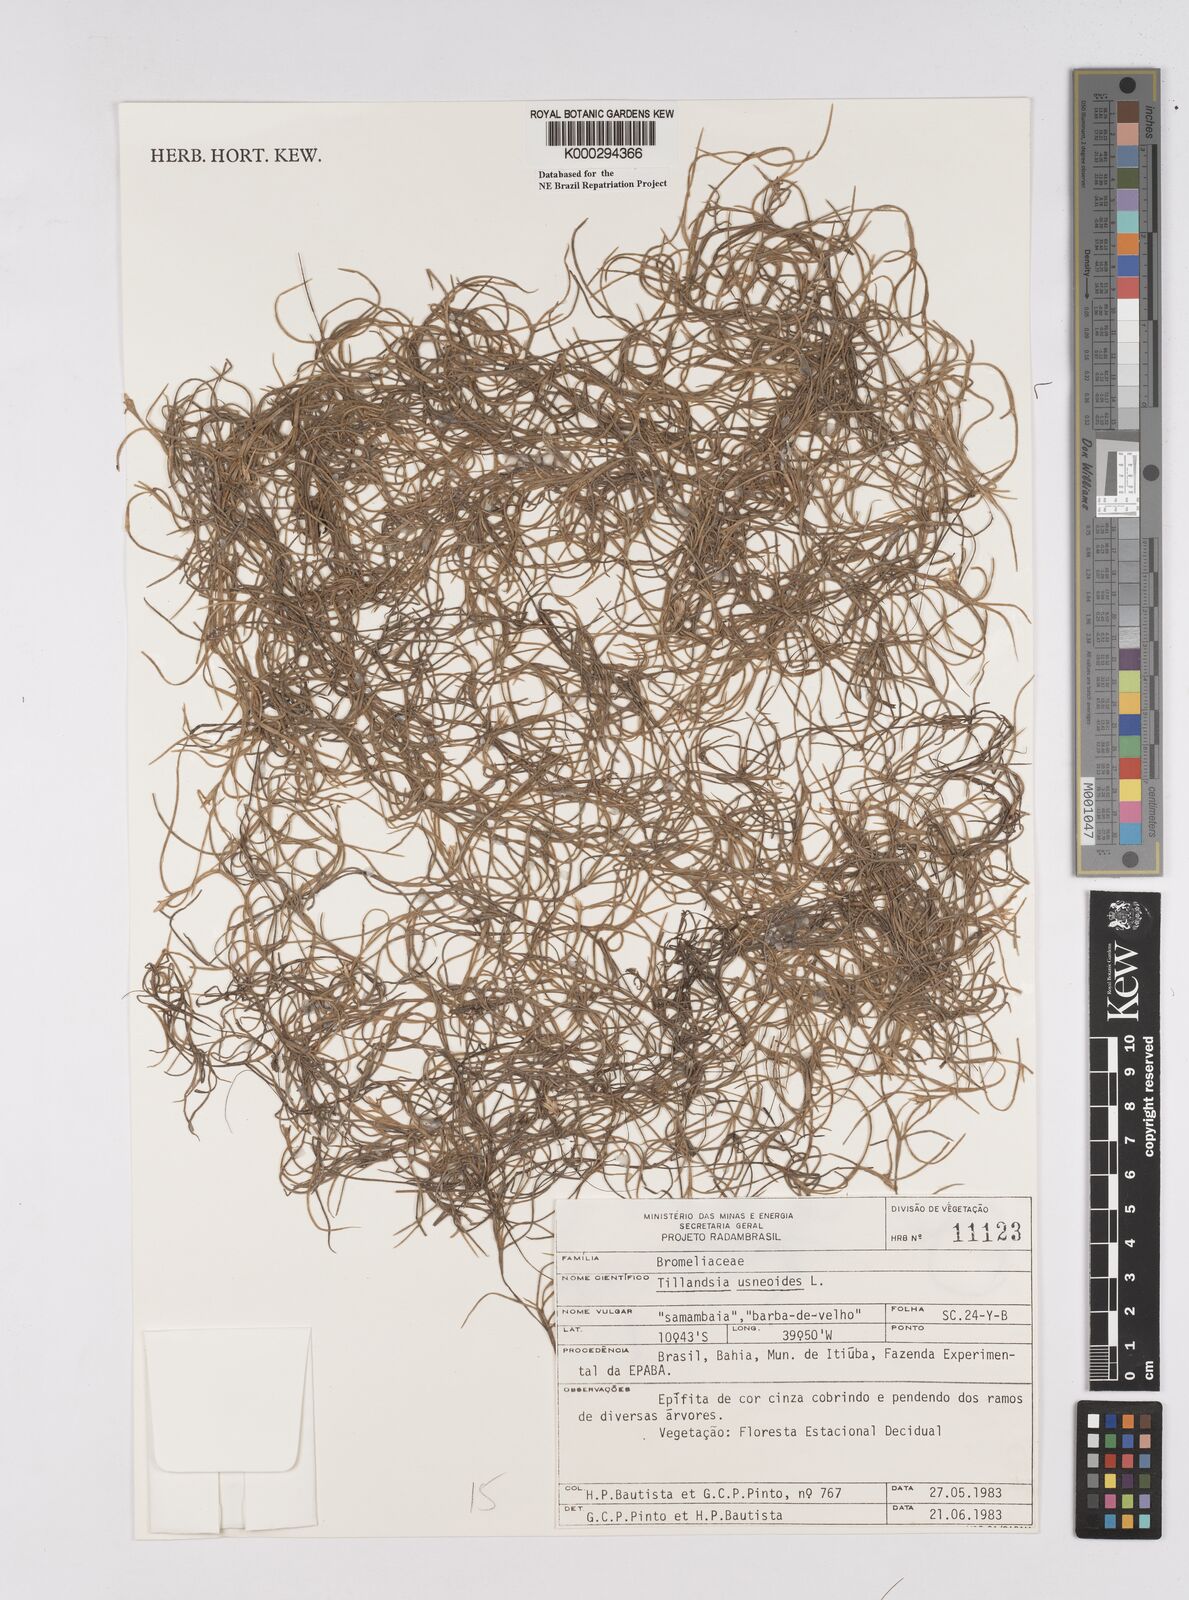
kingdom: Plantae
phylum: Tracheophyta
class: Liliopsida
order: Poales
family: Bromeliaceae
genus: Tillandsia
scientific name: Tillandsia usneoides
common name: Spanish moss
